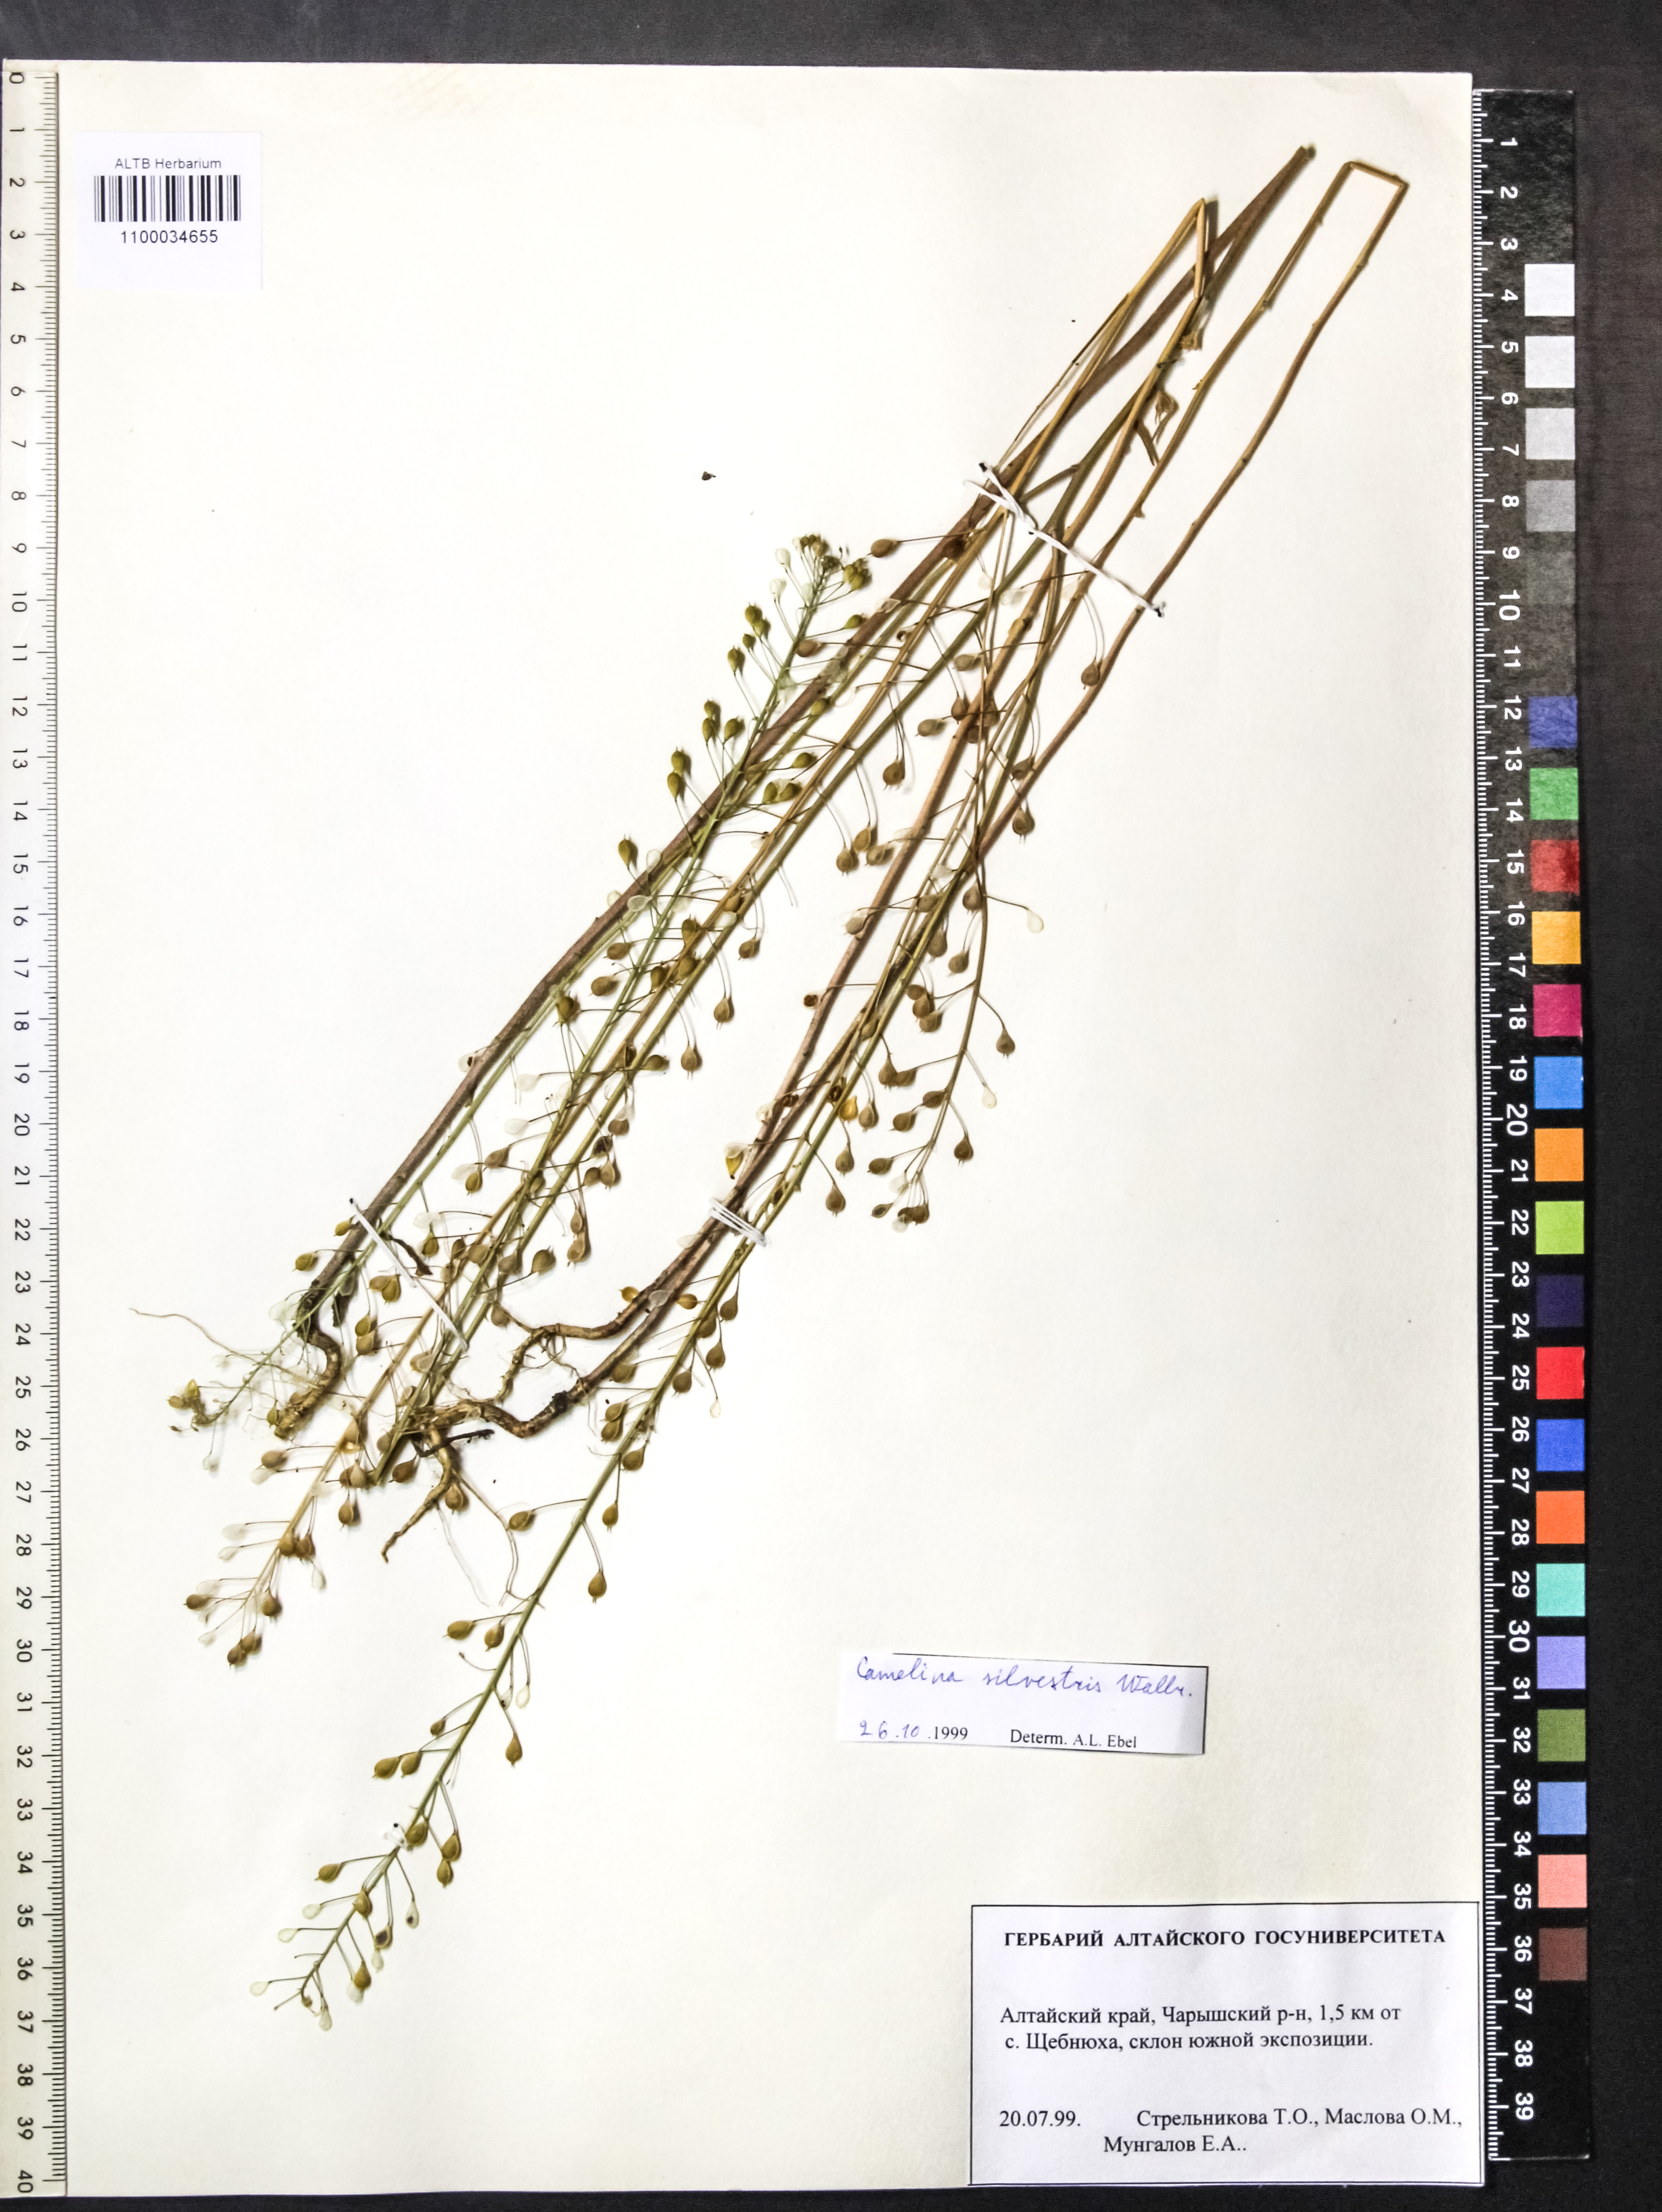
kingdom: Plantae
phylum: Tracheophyta
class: Magnoliopsida
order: Brassicales
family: Brassicaceae
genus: Camelina
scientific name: Camelina microcarpa
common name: Lesser gold-of-pleasure
